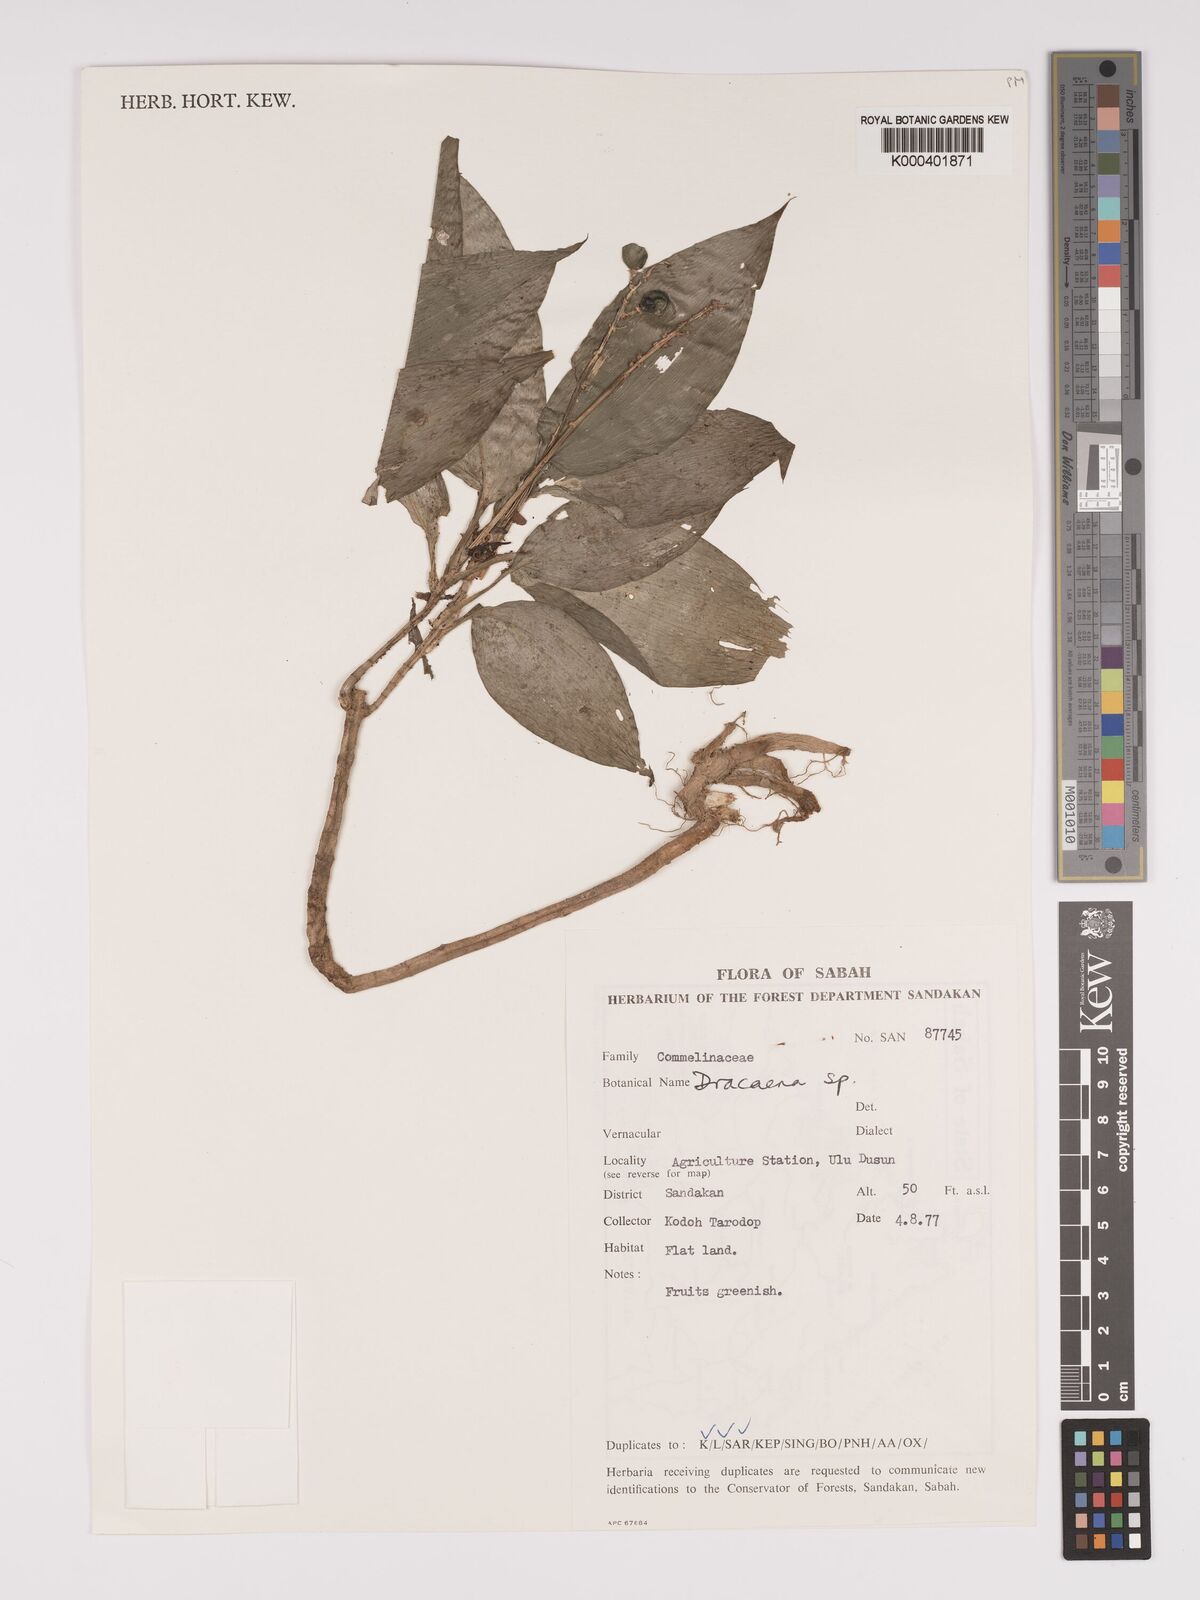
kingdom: Plantae
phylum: Tracheophyta
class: Liliopsida
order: Asparagales
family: Asparagaceae
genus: Dracaena
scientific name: Dracaena
